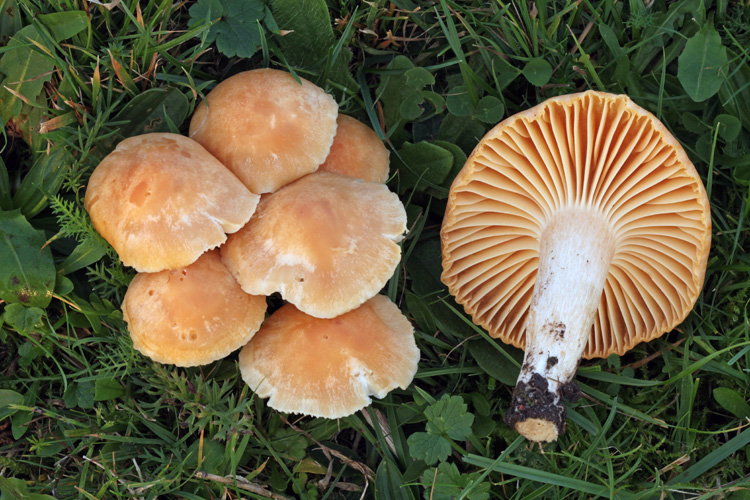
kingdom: Fungi
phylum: Basidiomycota
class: Agaricomycetes
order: Agaricales
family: Hygrophoraceae
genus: Cuphophyllus
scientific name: Cuphophyllus pratensis
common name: eng-vokshat
